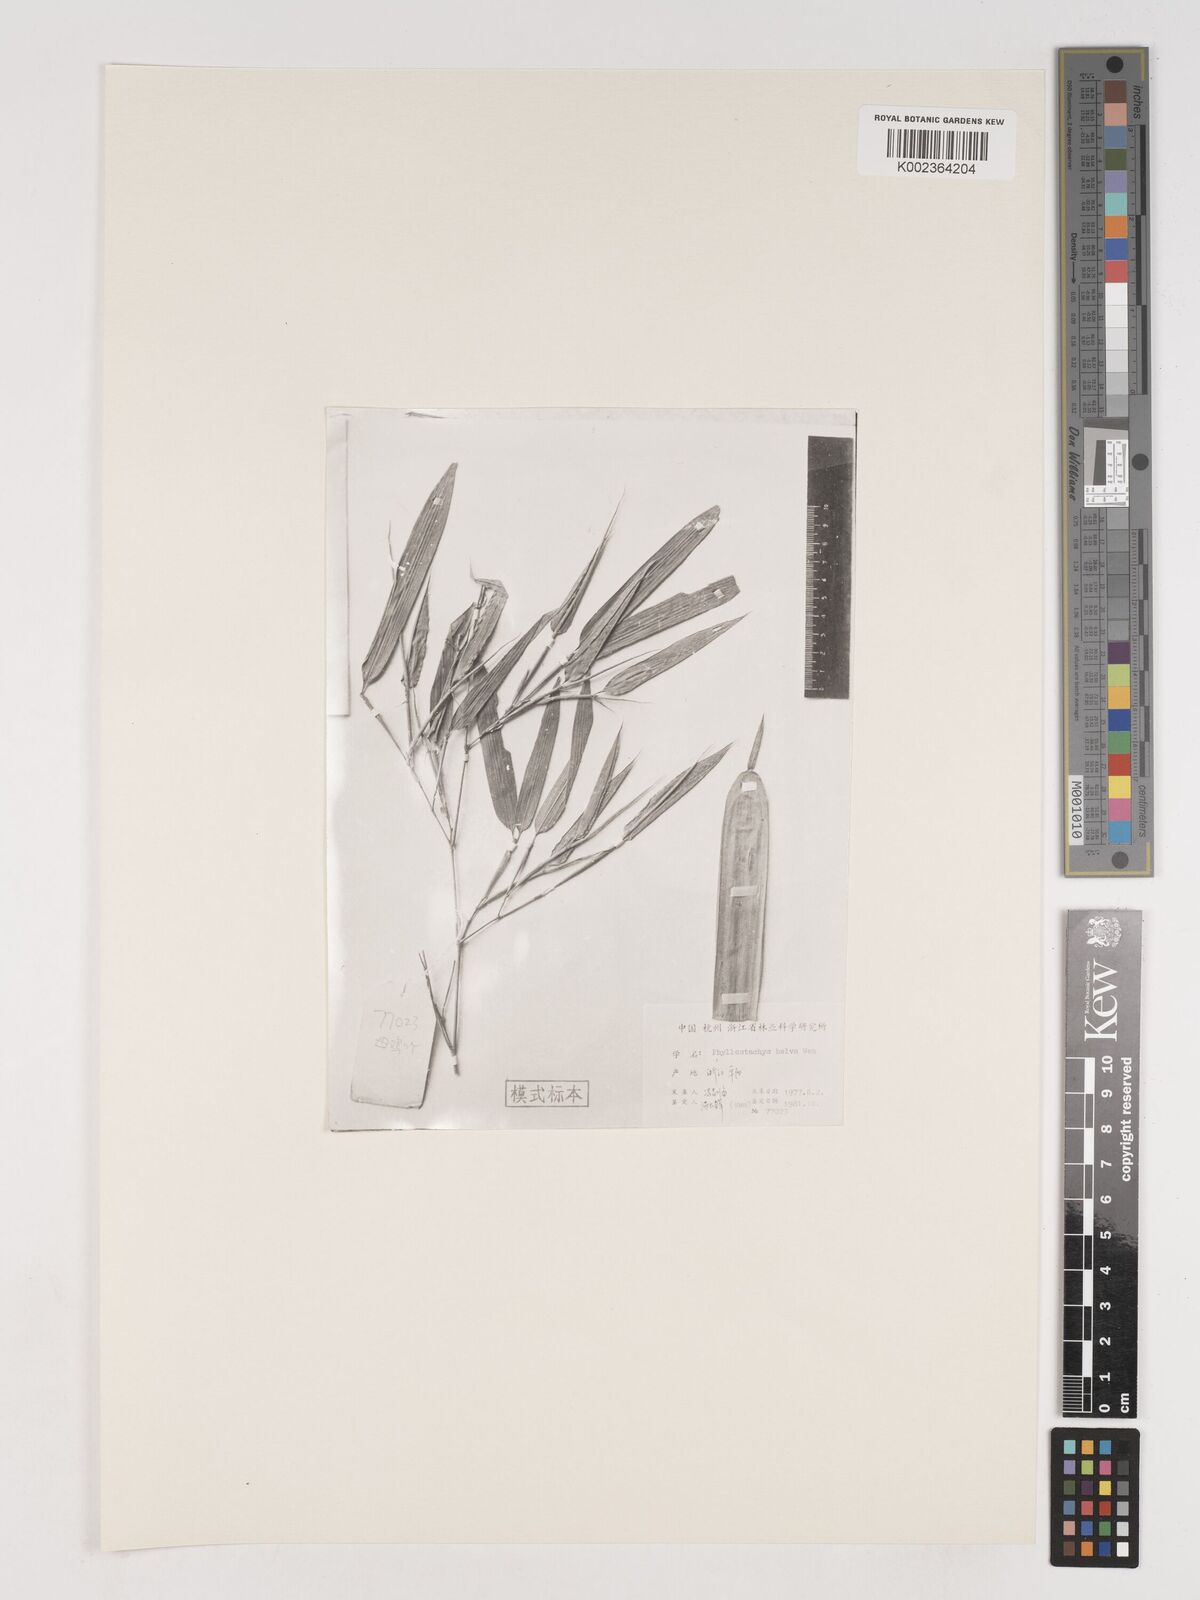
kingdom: Plantae
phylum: Tracheophyta
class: Liliopsida
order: Poales
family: Poaceae
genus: Phyllostachys
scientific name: Phyllostachys mannii
